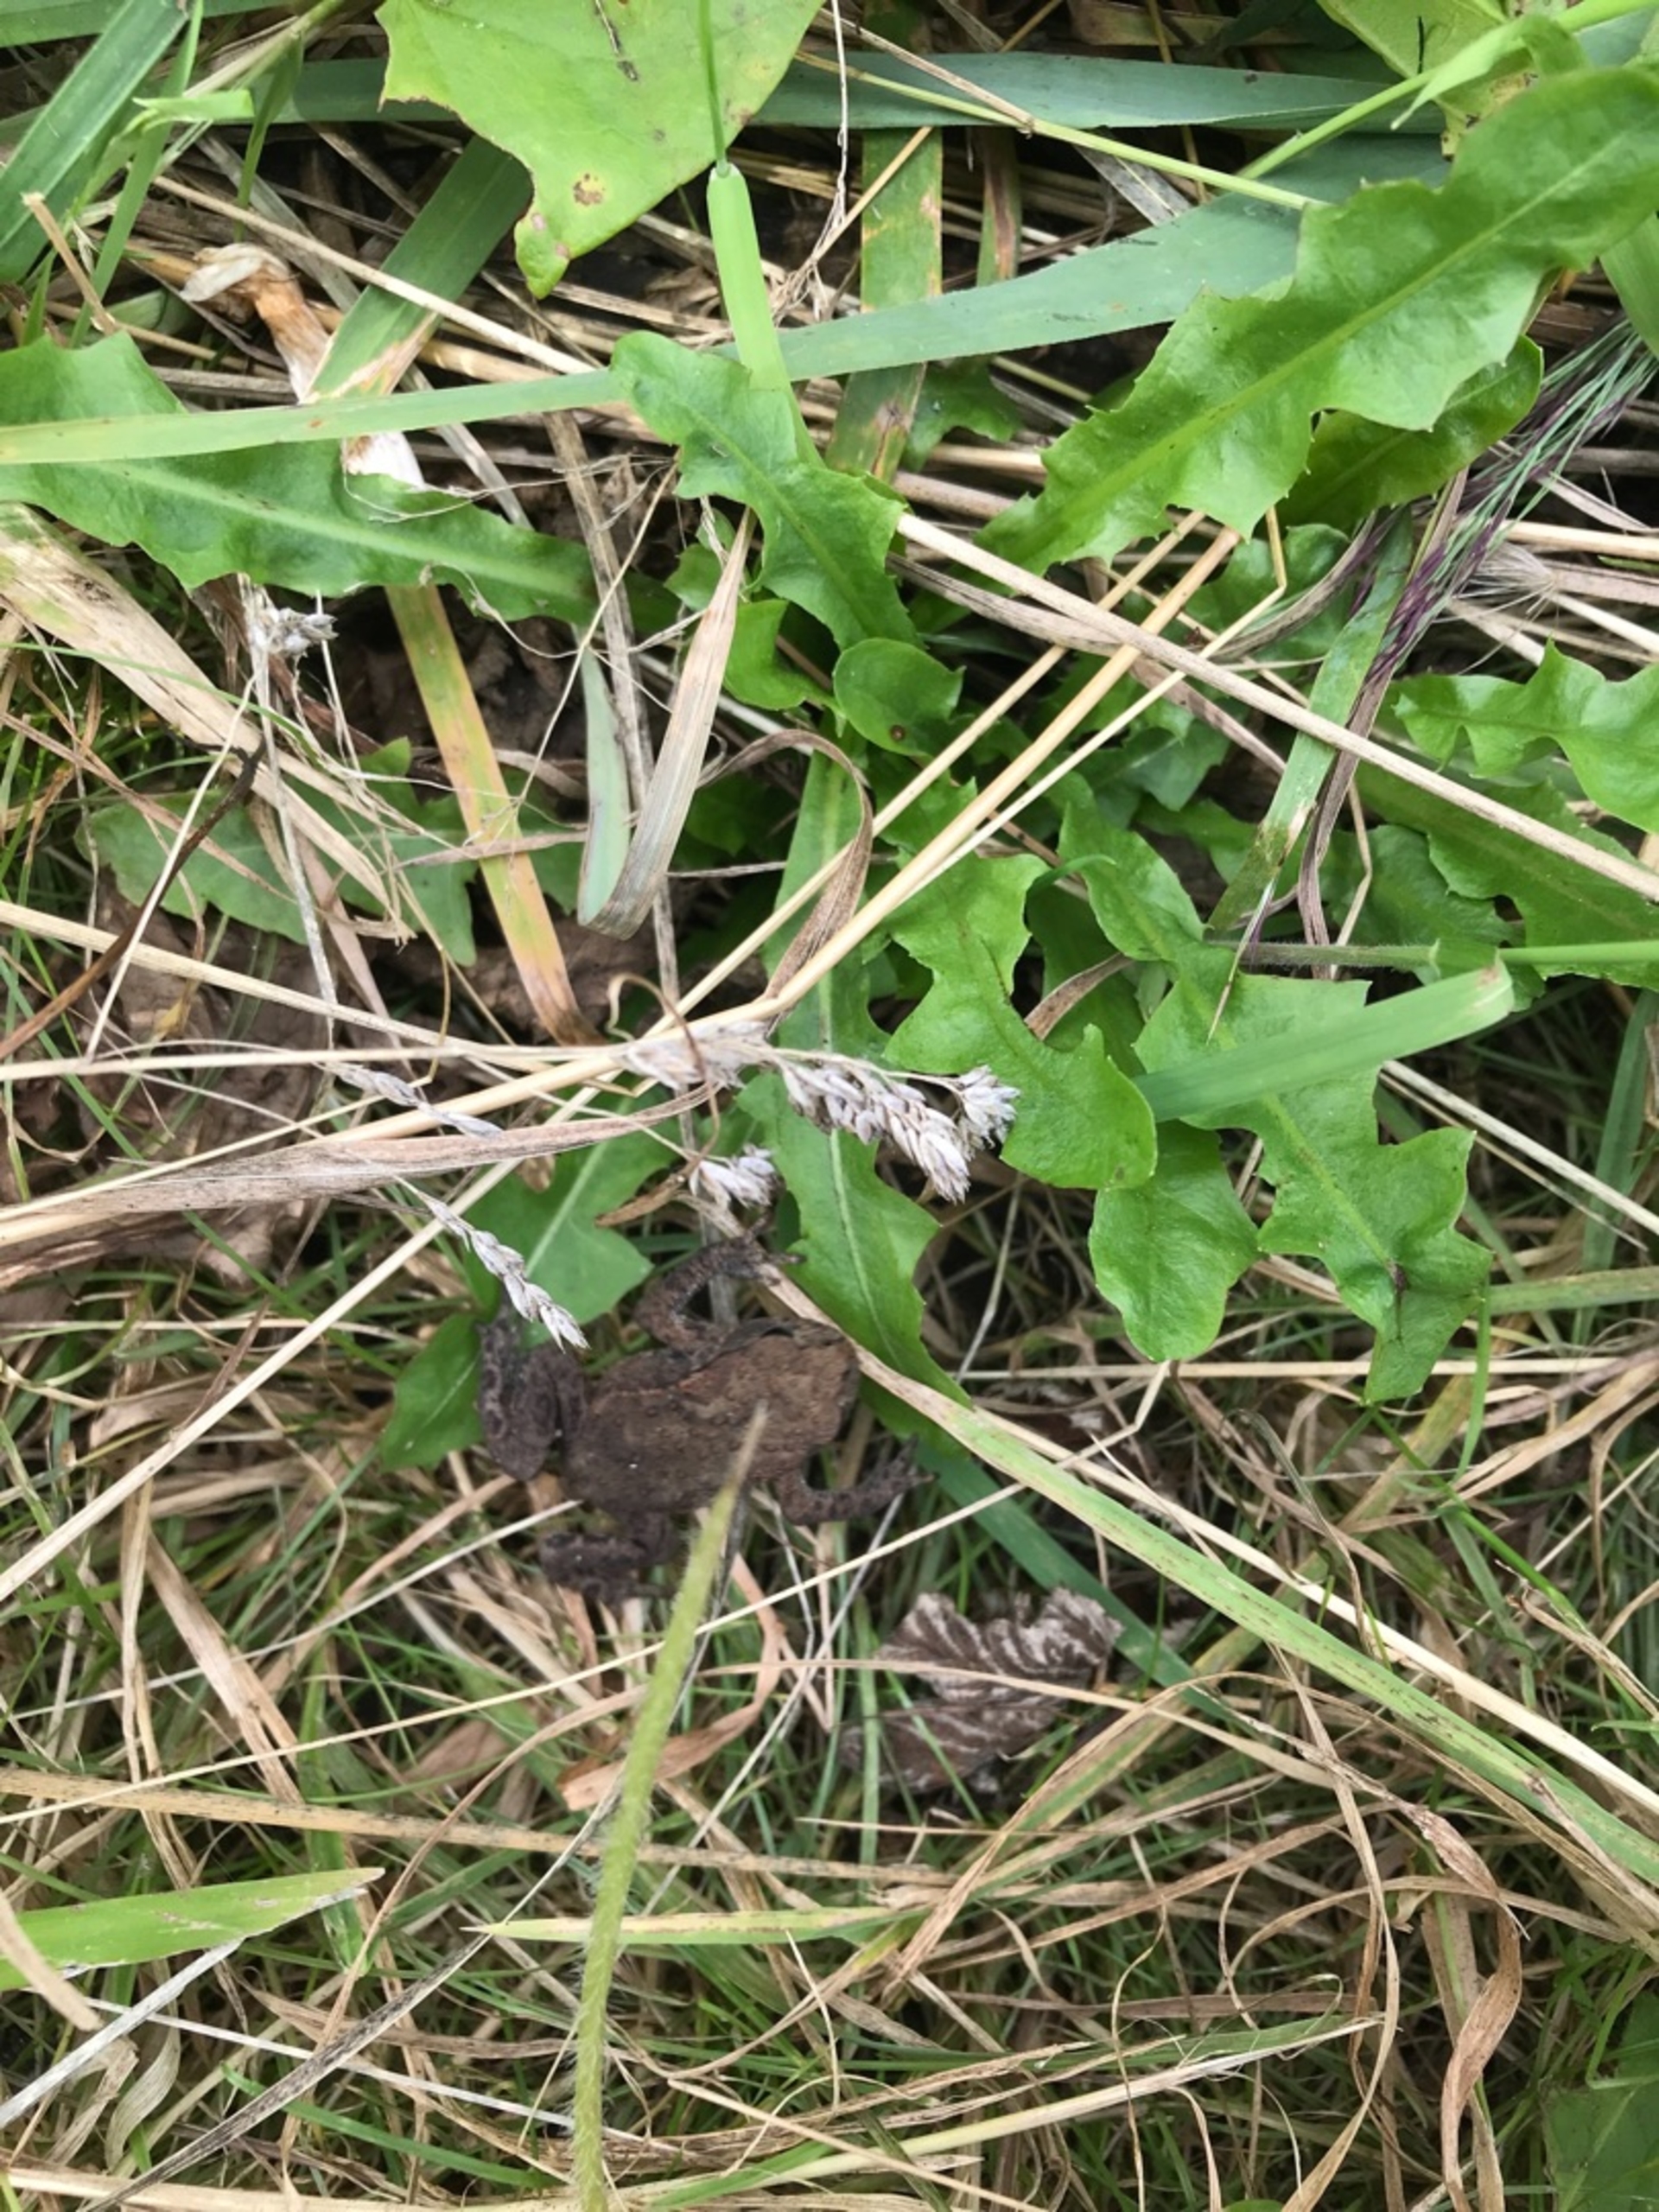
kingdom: Animalia
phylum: Chordata
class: Amphibia
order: Anura
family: Bufonidae
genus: Bufo
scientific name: Bufo bufo
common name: Skrubtudse
